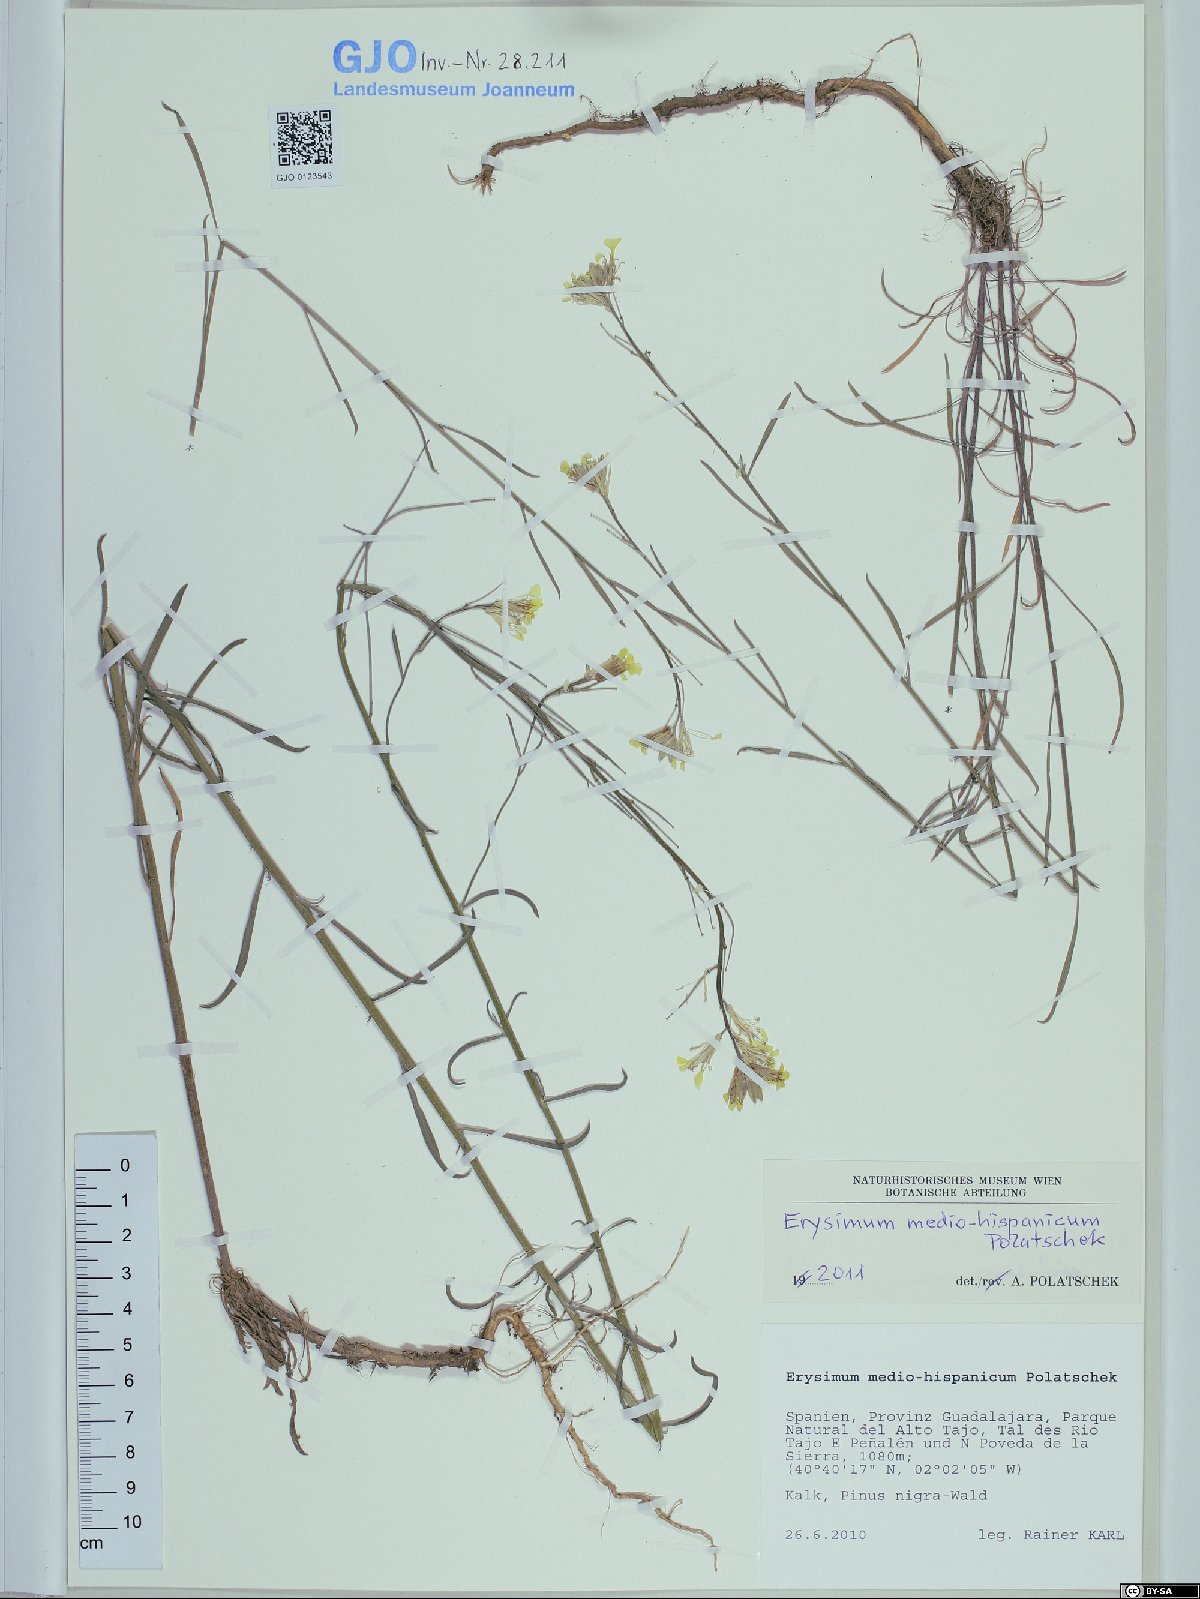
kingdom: Plantae
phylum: Tracheophyta
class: Magnoliopsida
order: Brassicales
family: Brassicaceae
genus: Erysimum
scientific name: Erysimum nevadense
